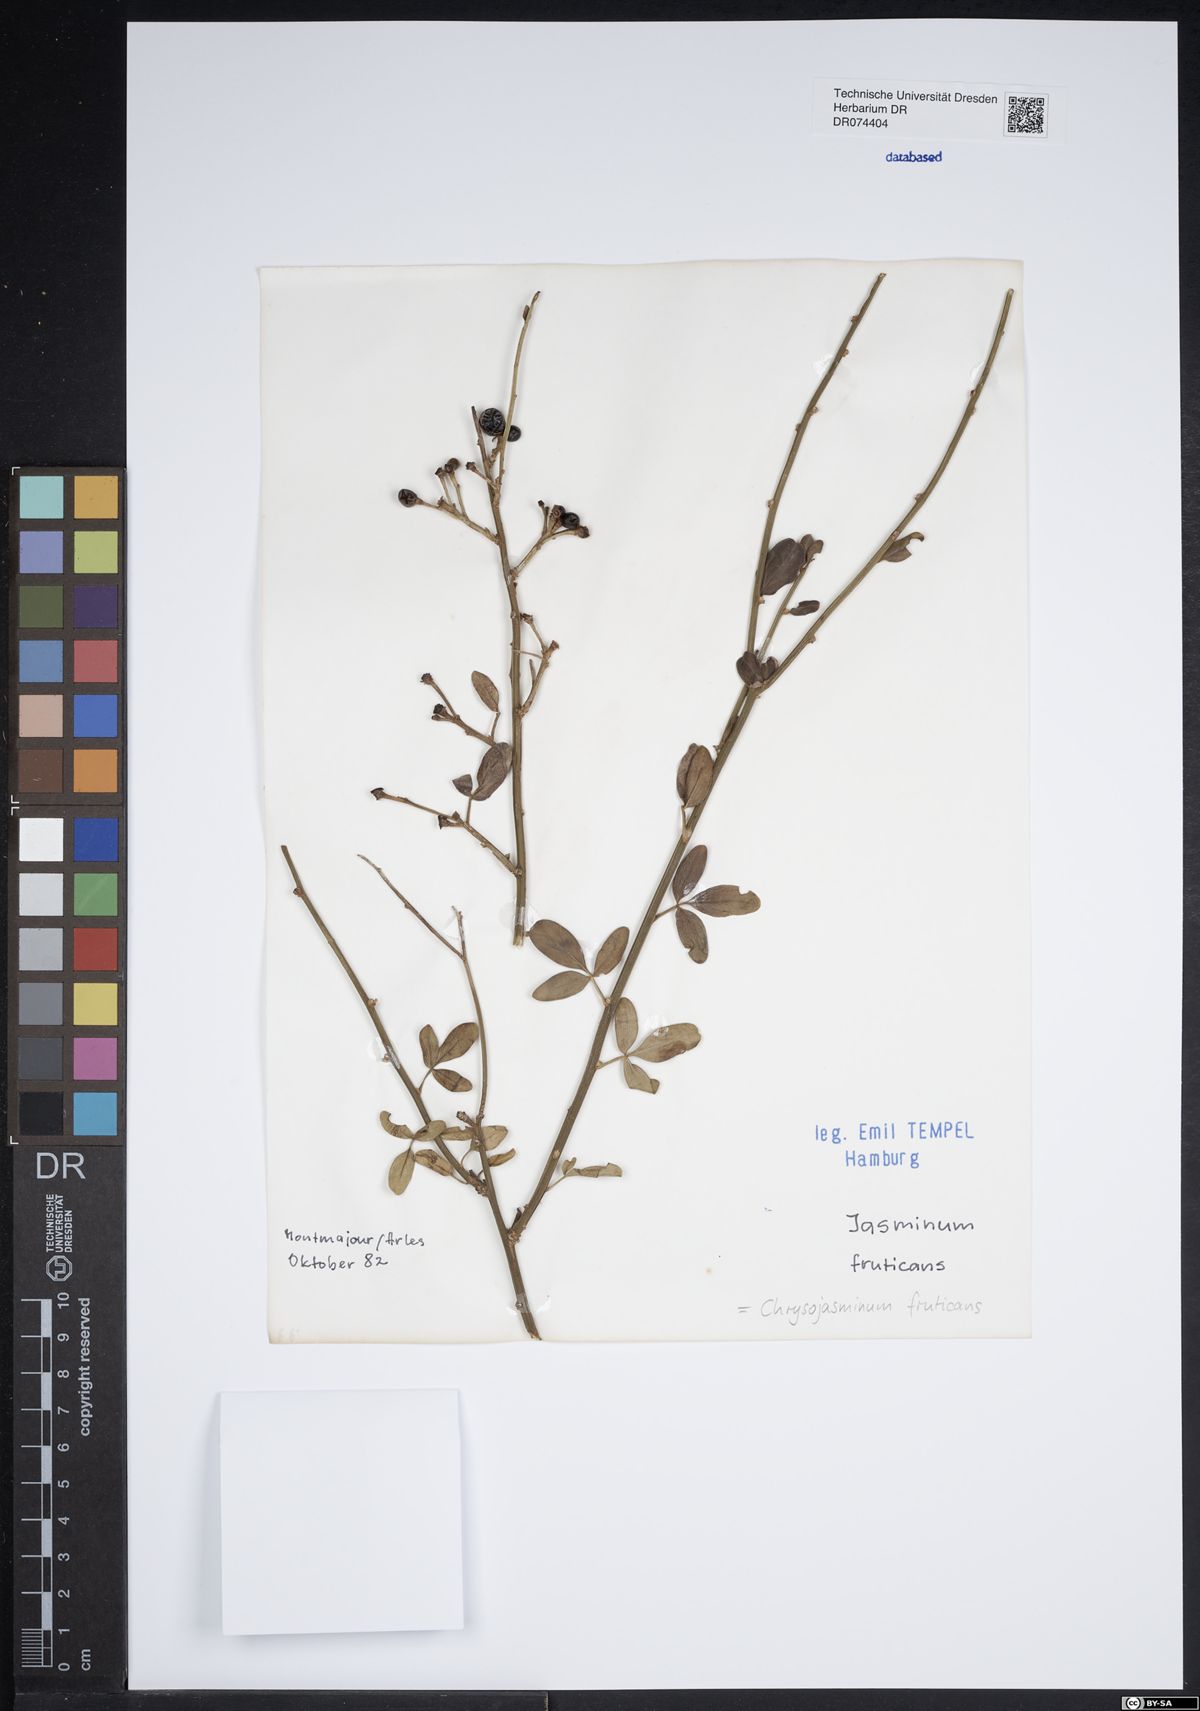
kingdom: Plantae
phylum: Tracheophyta
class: Magnoliopsida
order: Lamiales
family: Oleaceae
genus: Chrysojasminum
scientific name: Chrysojasminum fruticans
